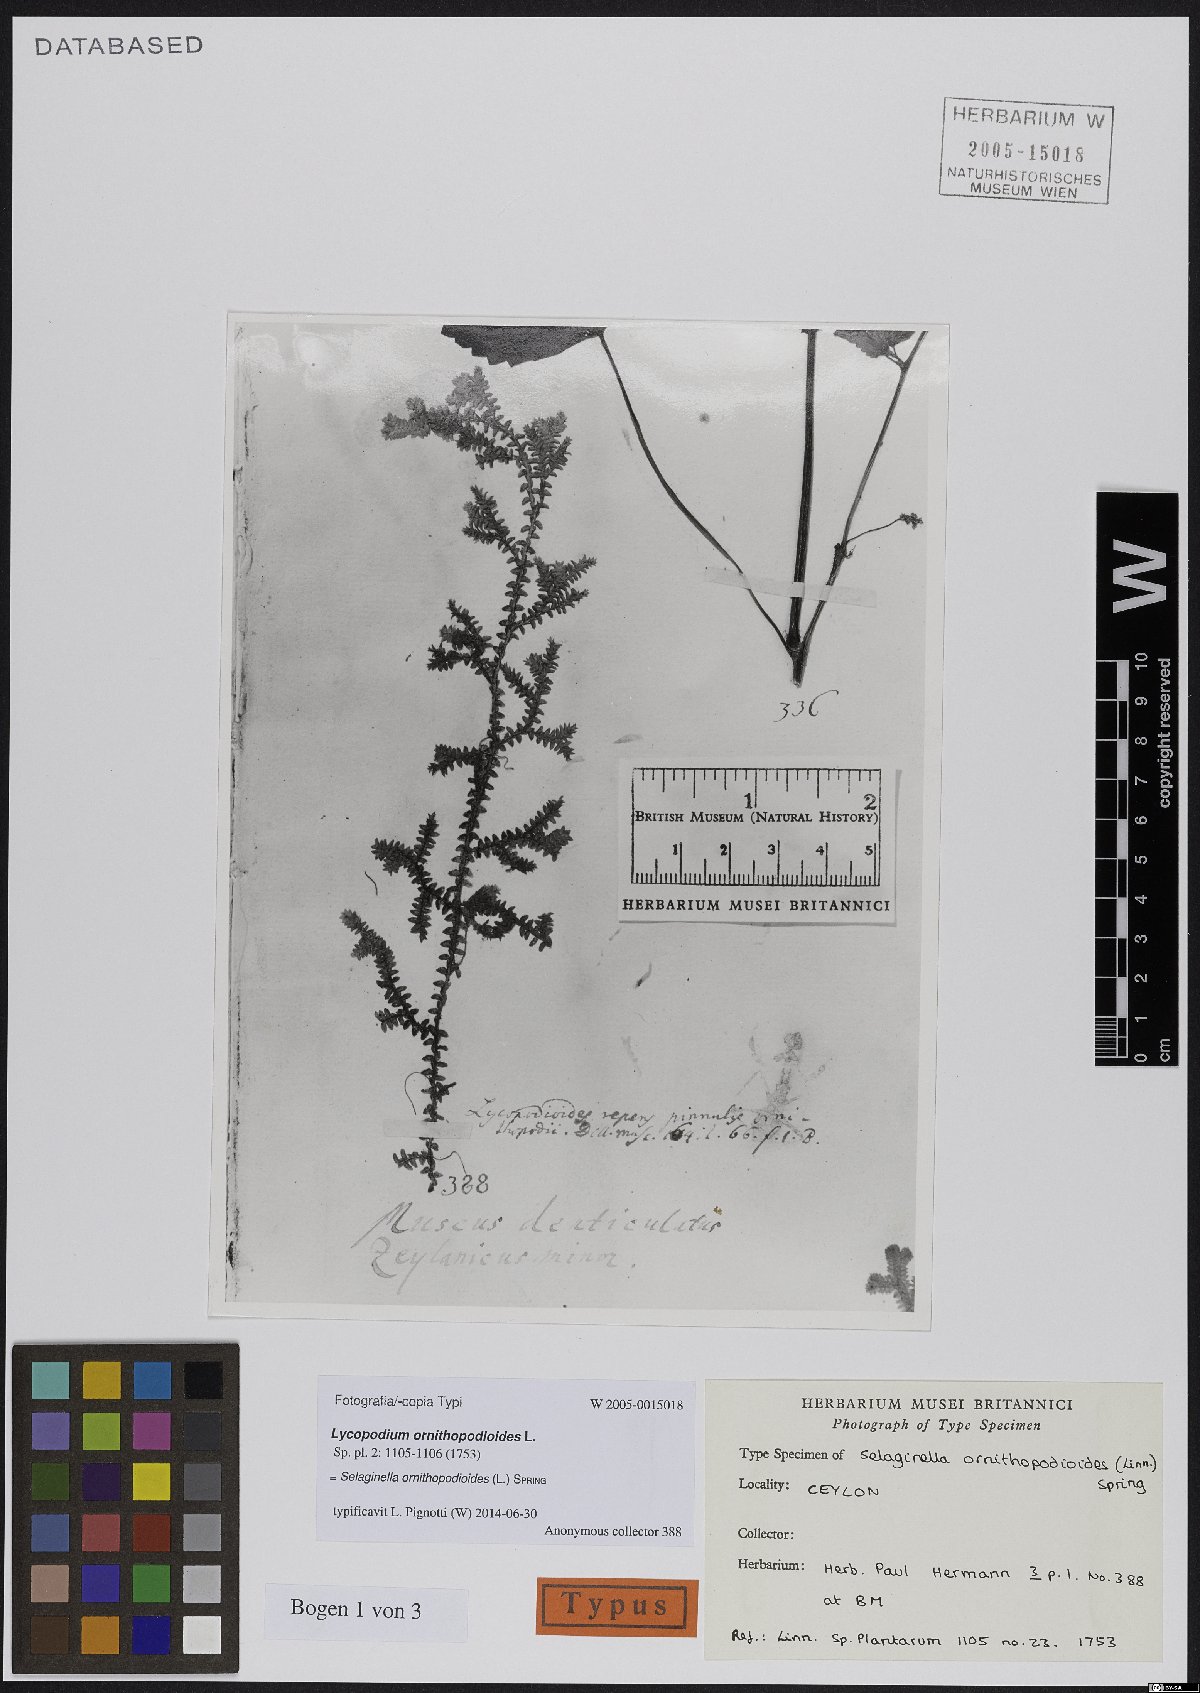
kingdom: Plantae
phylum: Tracheophyta
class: Lycopodiopsida
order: Selaginellales
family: Selaginellaceae
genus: Selaginella
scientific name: Selaginella ornithopodioides
